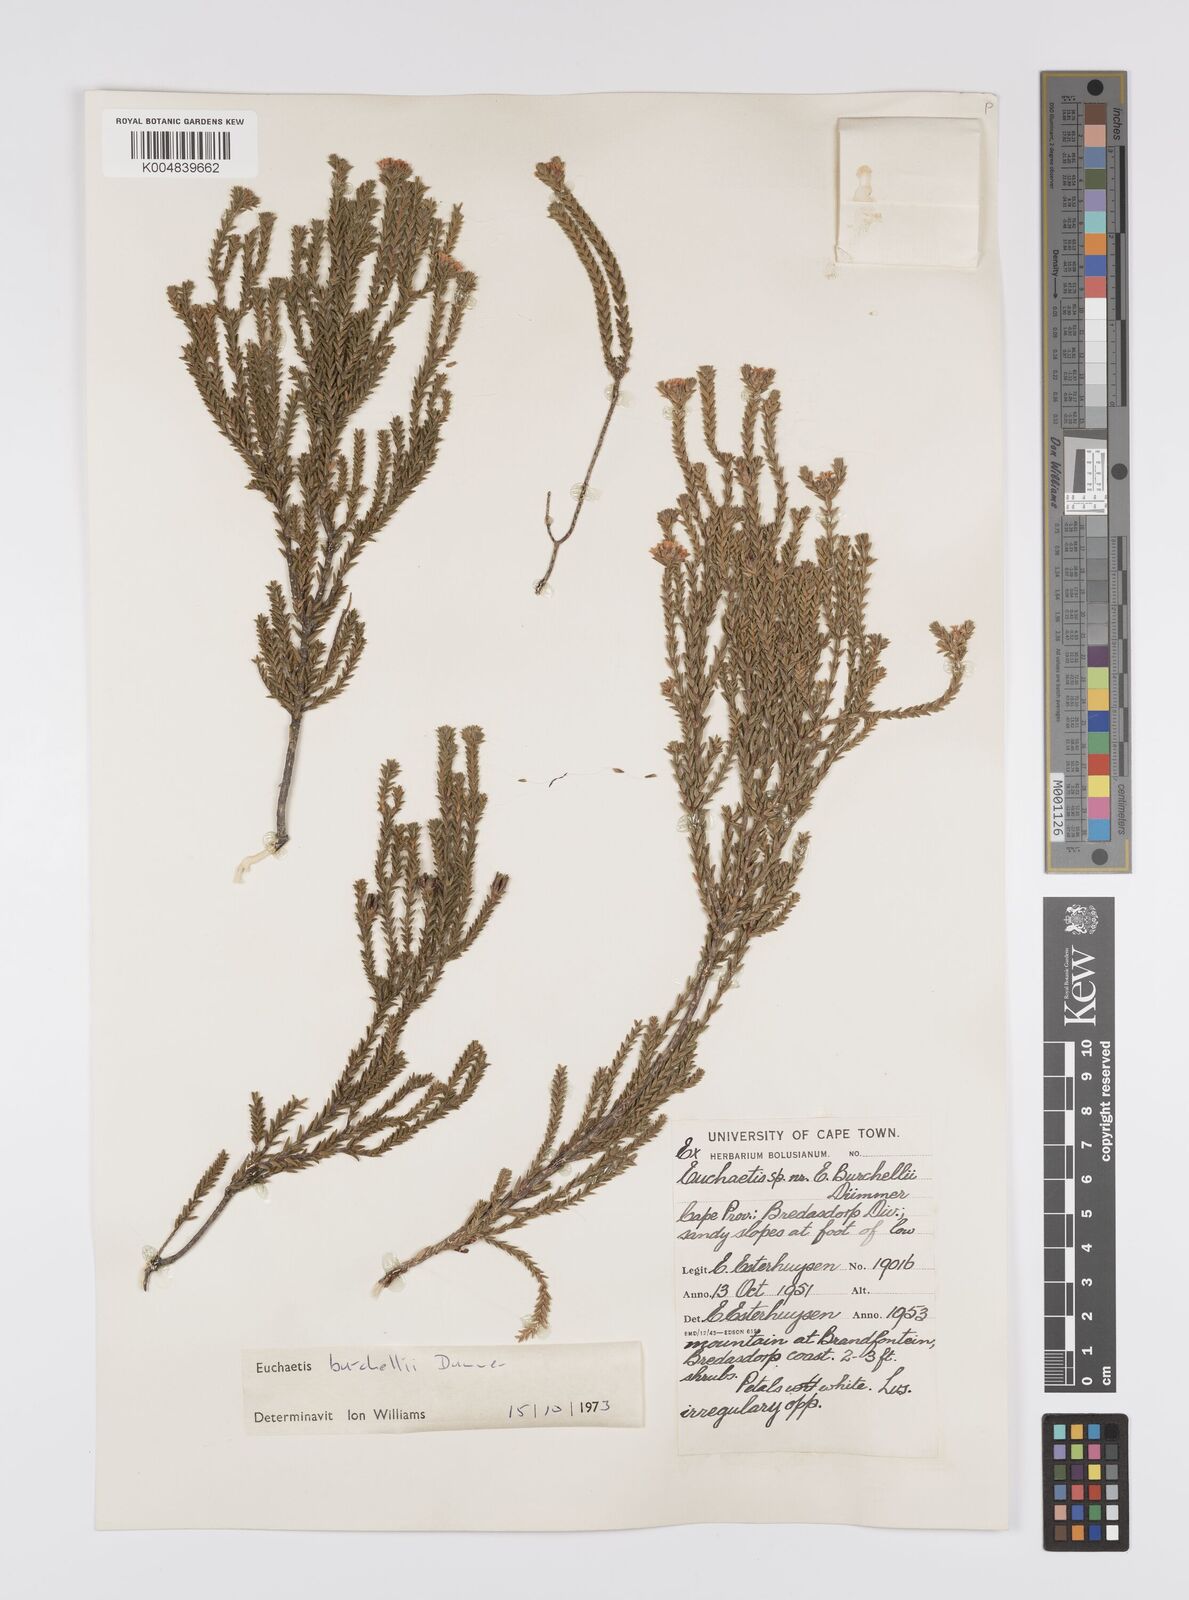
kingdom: Plantae
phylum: Tracheophyta
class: Magnoliopsida
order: Sapindales
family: Rutaceae
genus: Euchaetis
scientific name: Euchaetis burchellii
